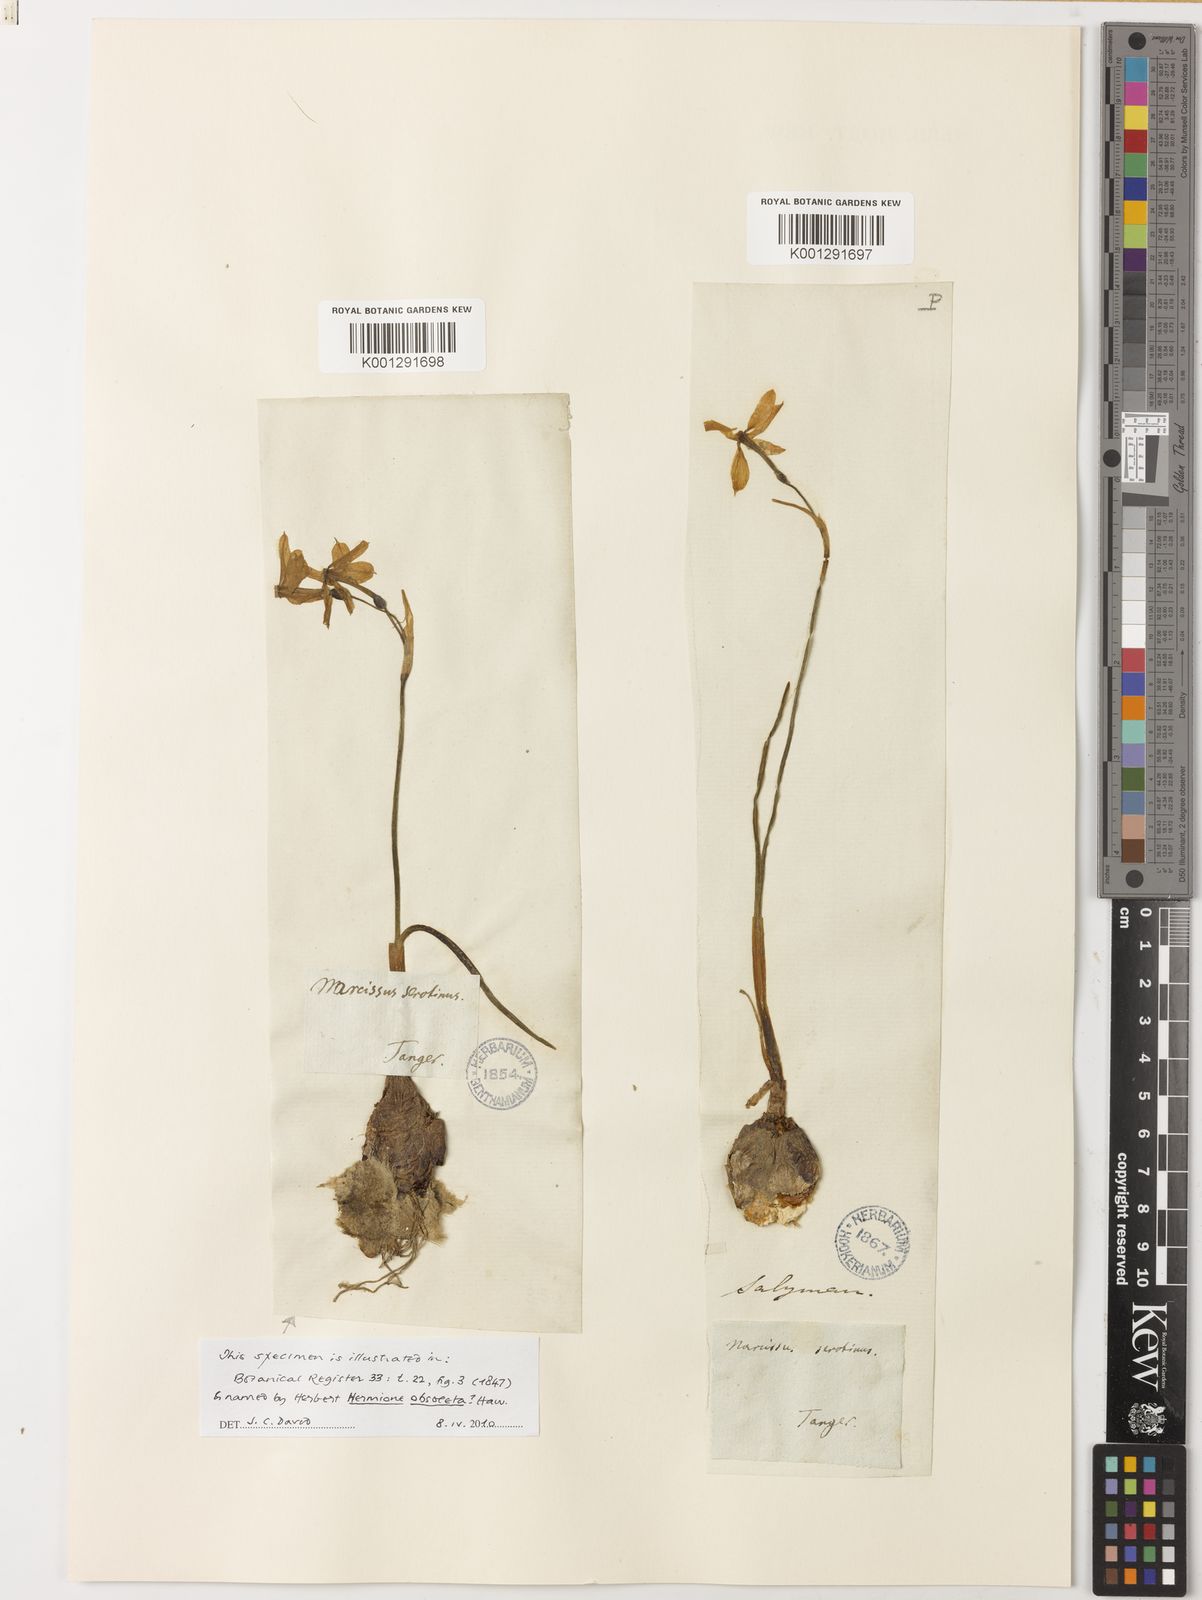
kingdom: Plantae
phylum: Tracheophyta
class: Liliopsida
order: Asparagales
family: Amaryllidaceae
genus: Narcissus
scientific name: Narcissus obsoletus
